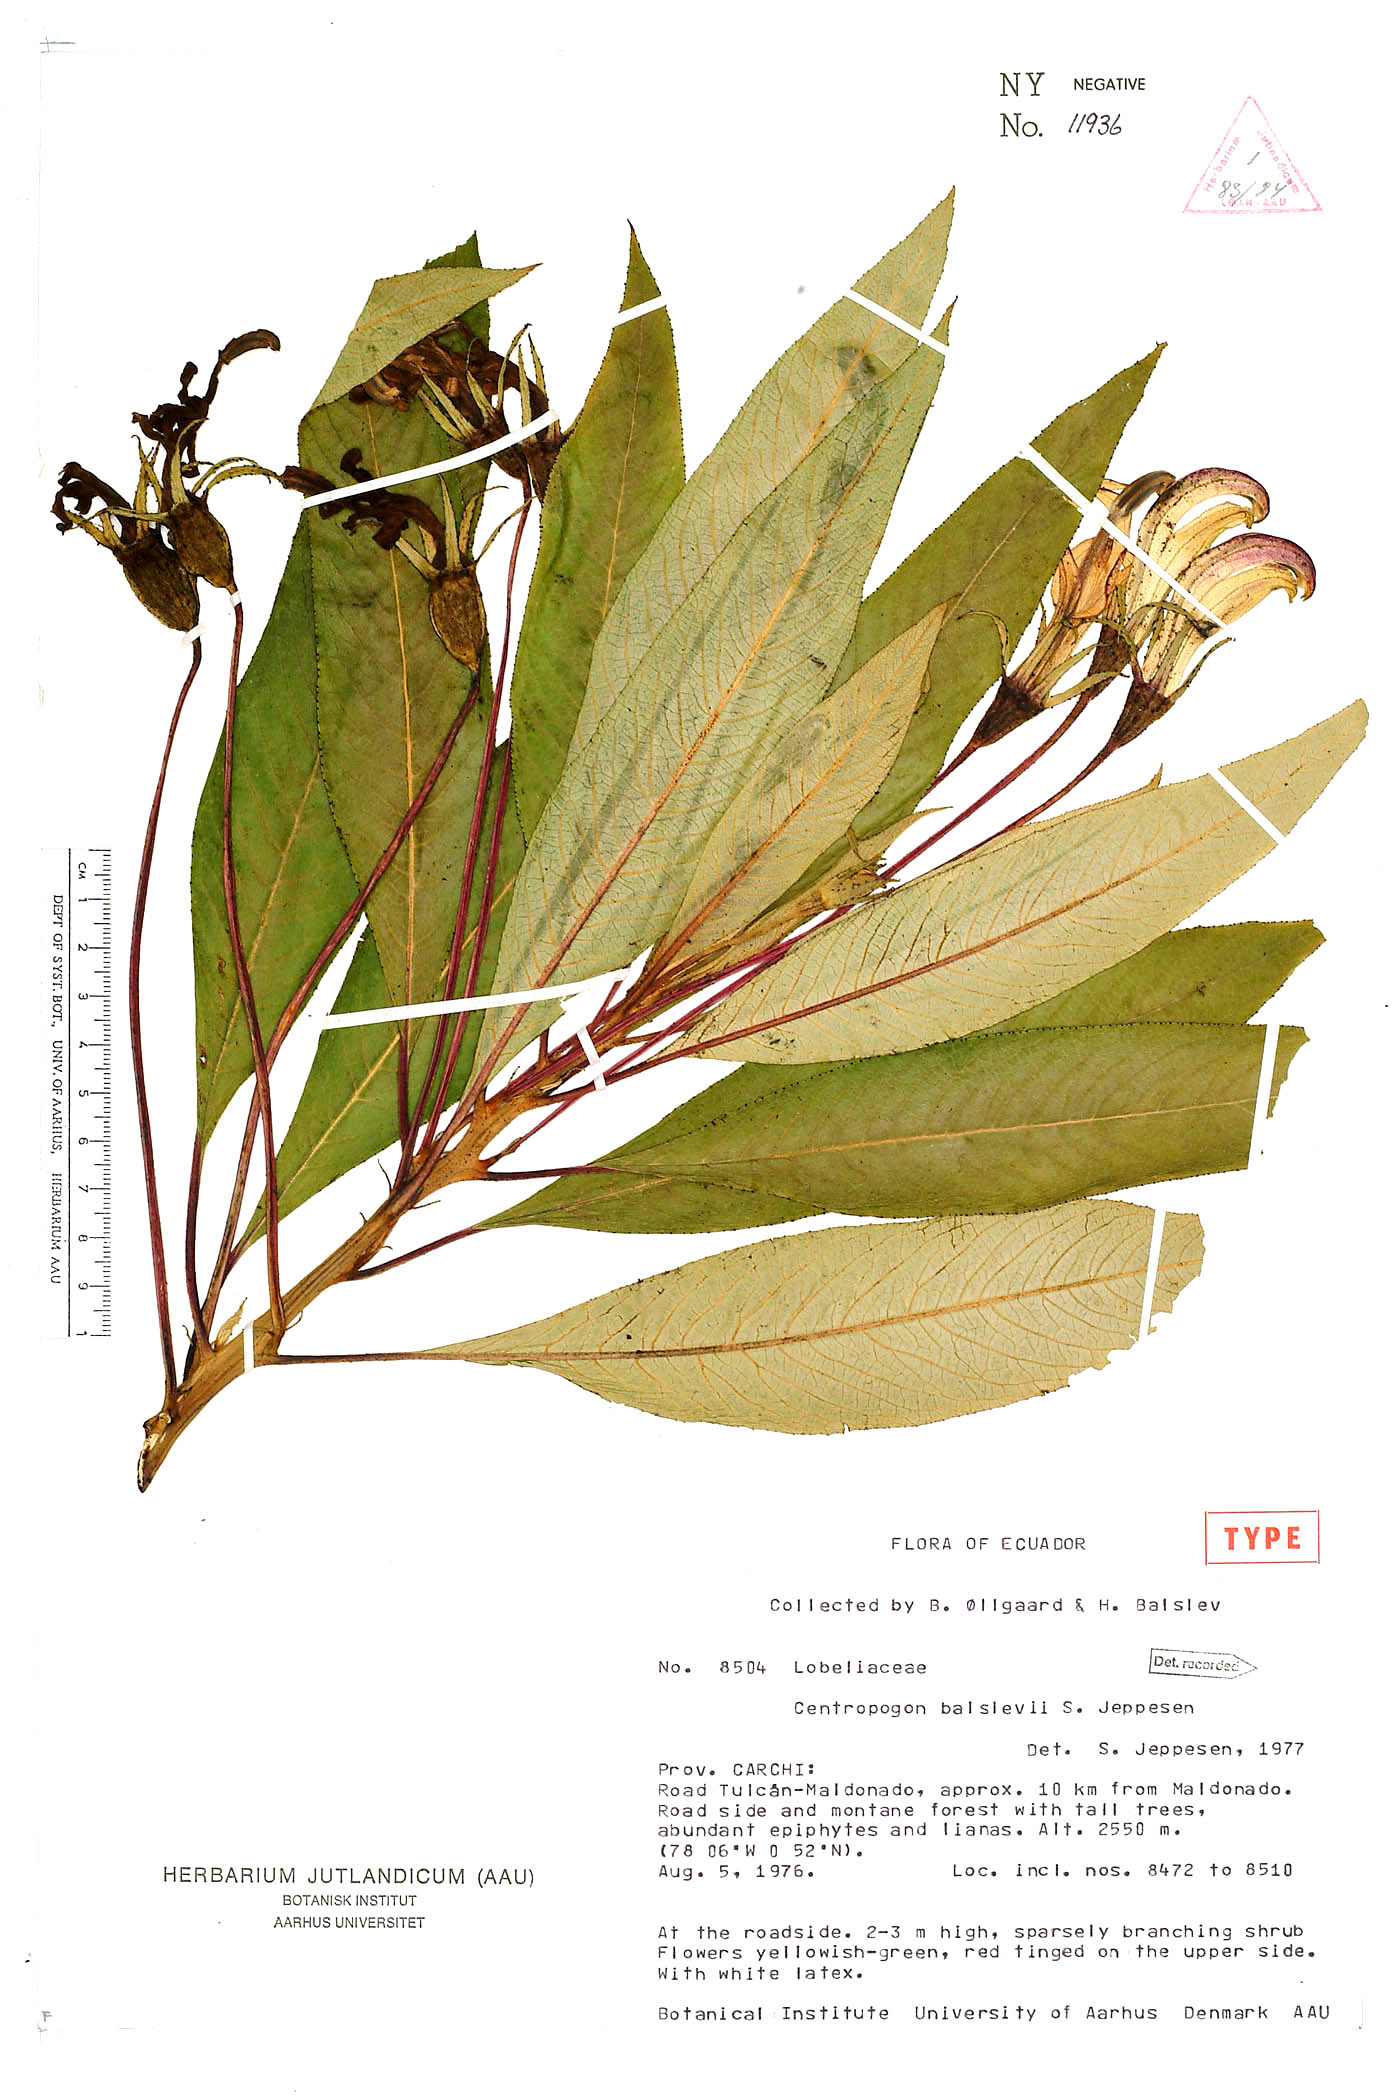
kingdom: Plantae
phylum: Tracheophyta
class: Magnoliopsida
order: Asterales
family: Campanulaceae
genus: Centropogon
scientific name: Centropogon balslevii
